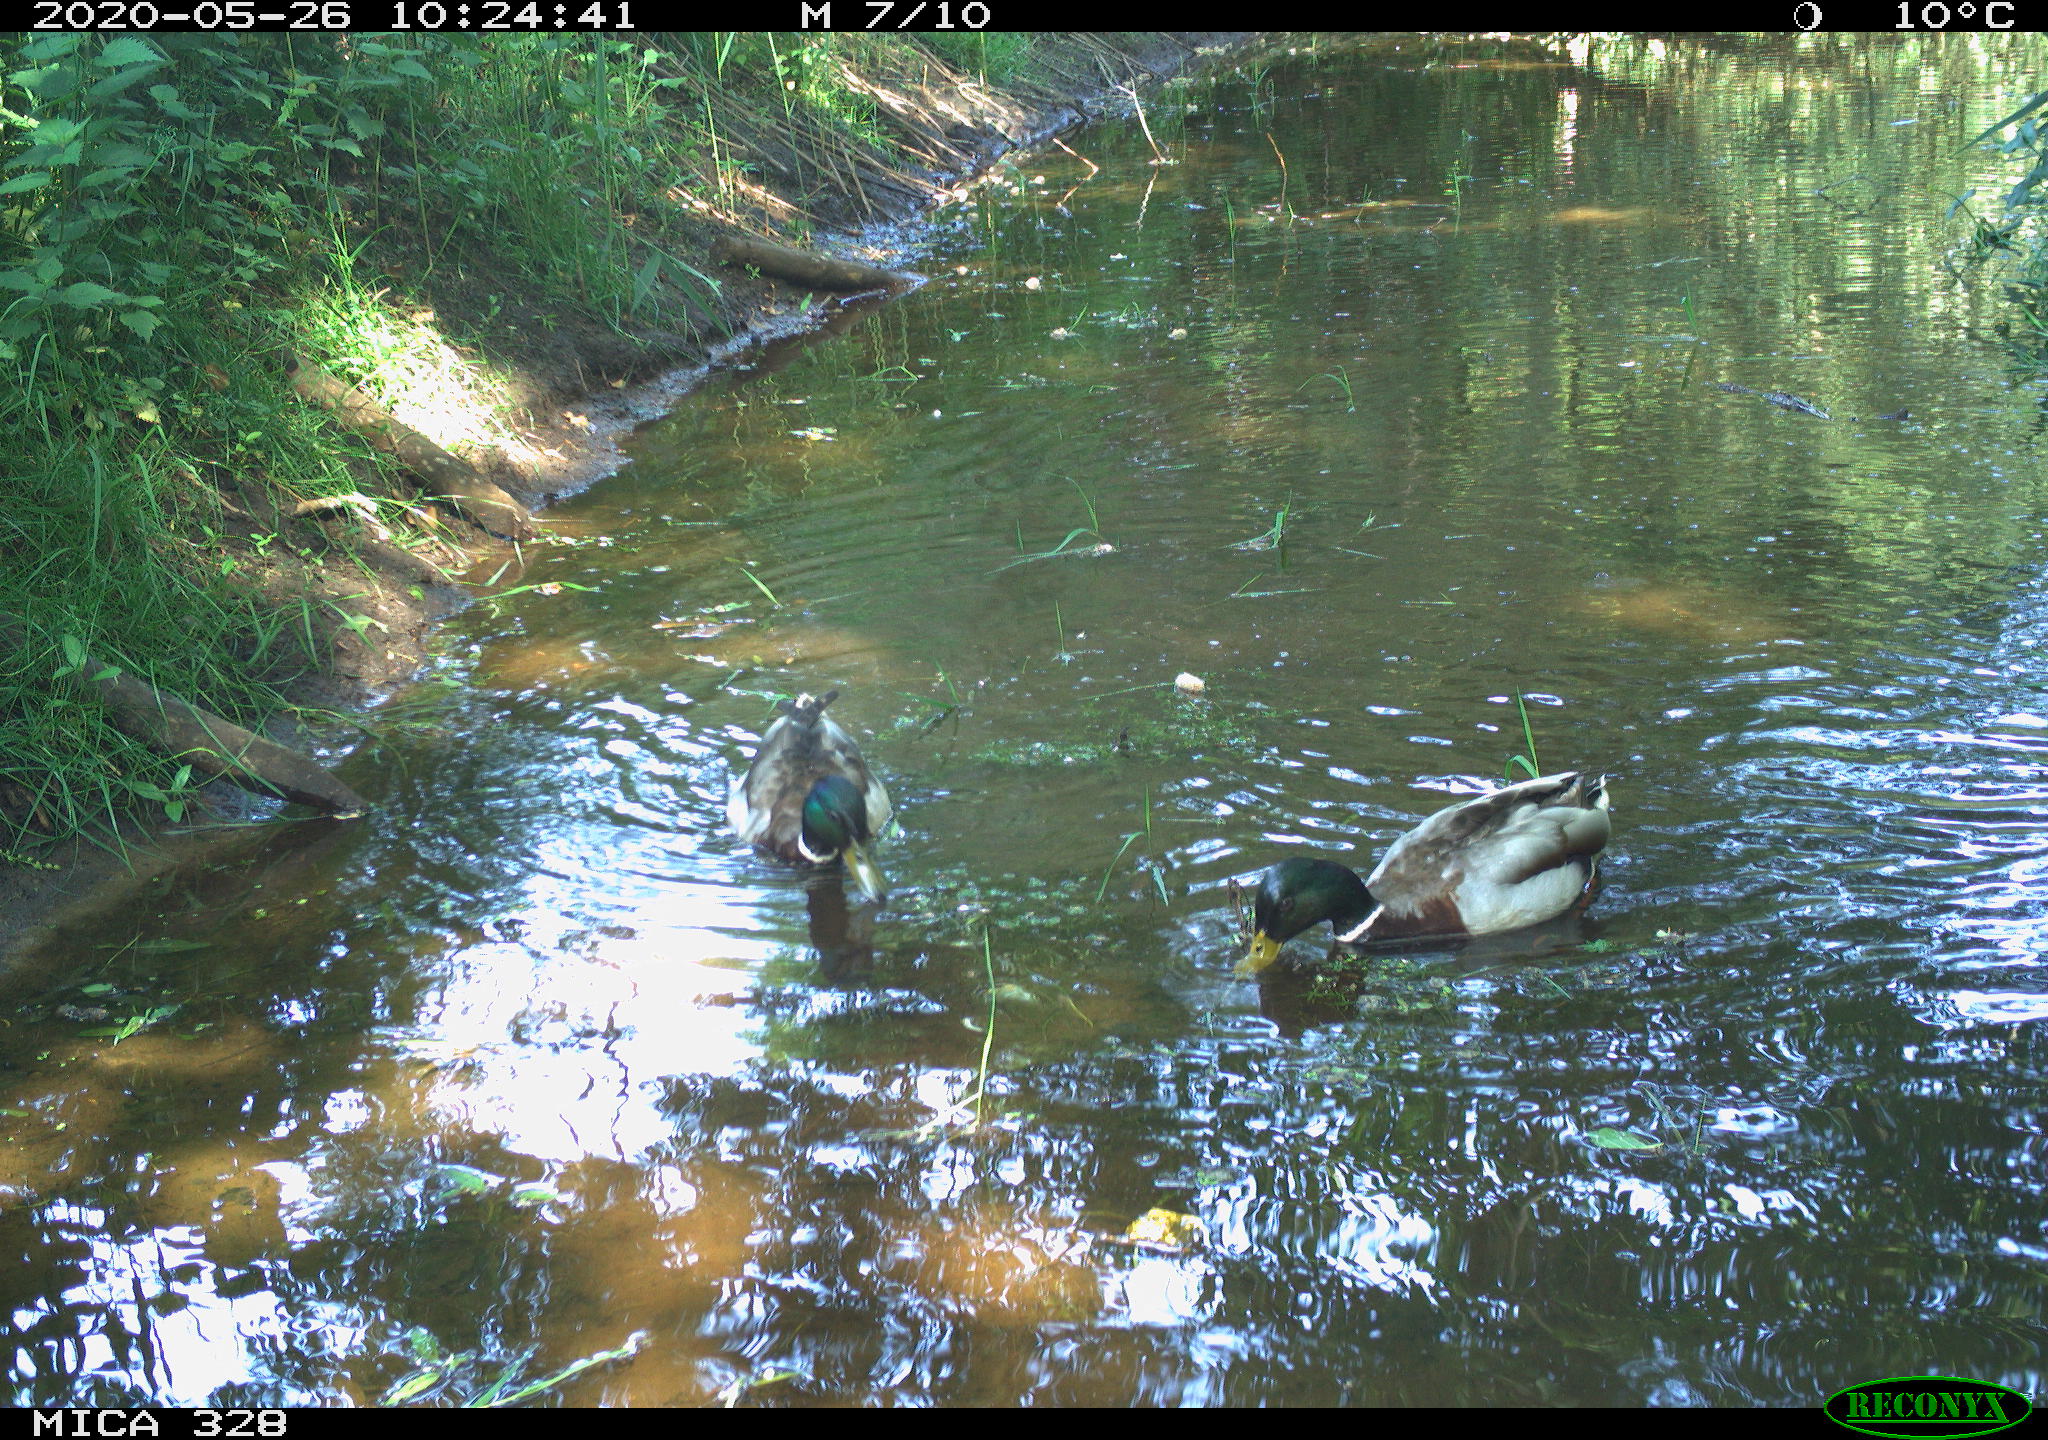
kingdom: Animalia
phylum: Chordata
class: Aves
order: Anseriformes
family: Anatidae
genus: Anas
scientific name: Anas platyrhynchos
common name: Mallard
